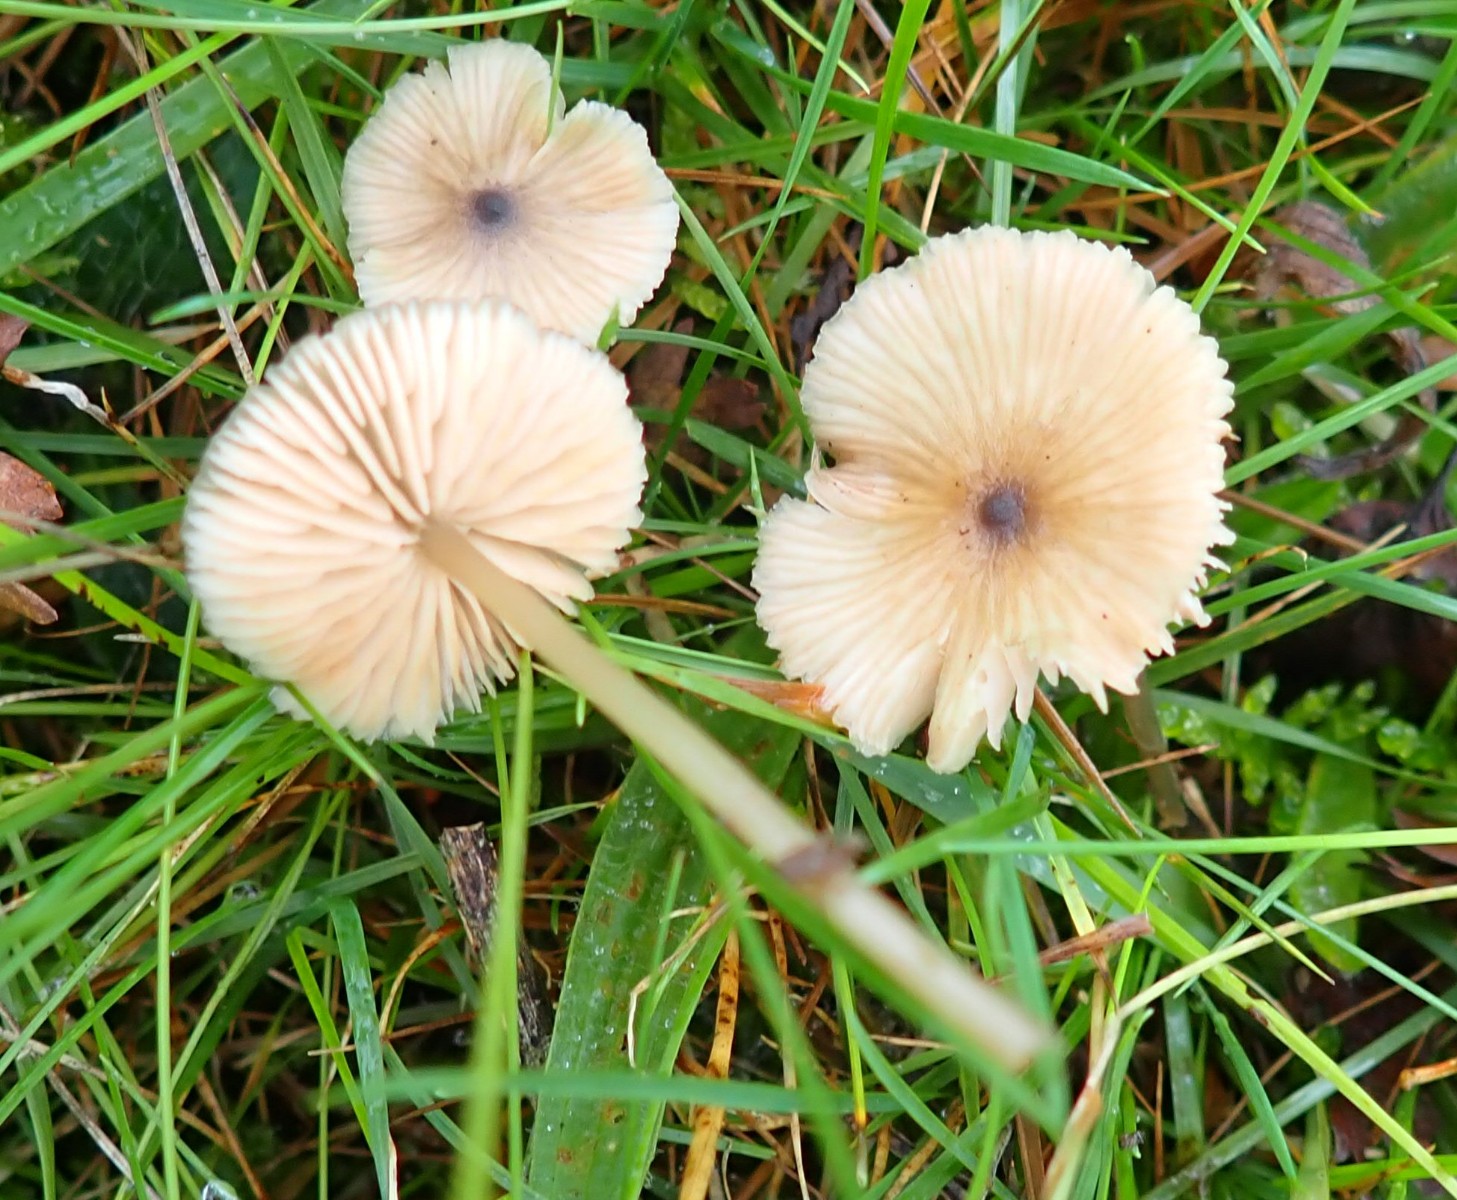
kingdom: Fungi
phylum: Basidiomycota
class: Agaricomycetes
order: Agaricales
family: Entolomataceae
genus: Entoloma
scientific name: Entoloma exile
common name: rødplettet rødblad
